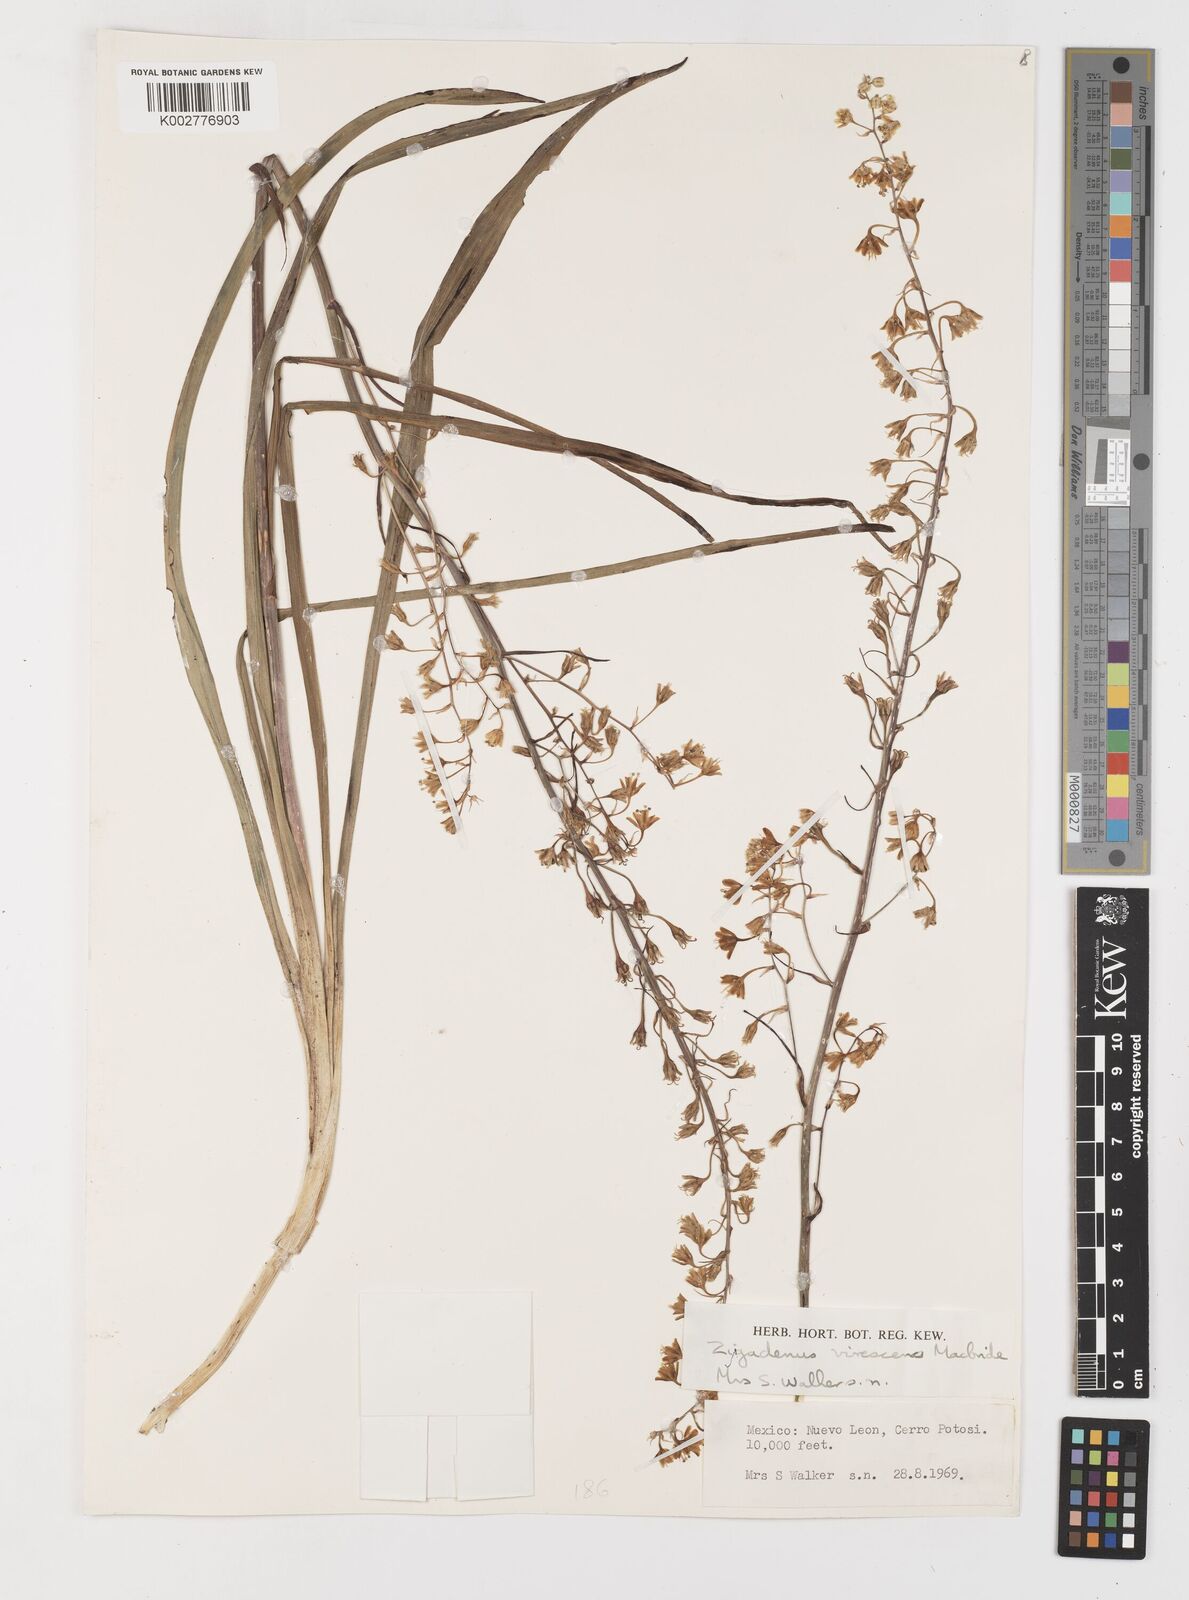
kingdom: Plantae
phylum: Tracheophyta
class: Liliopsida
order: Liliales
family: Melanthiaceae
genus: Anticlea
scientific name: Anticlea virescens
